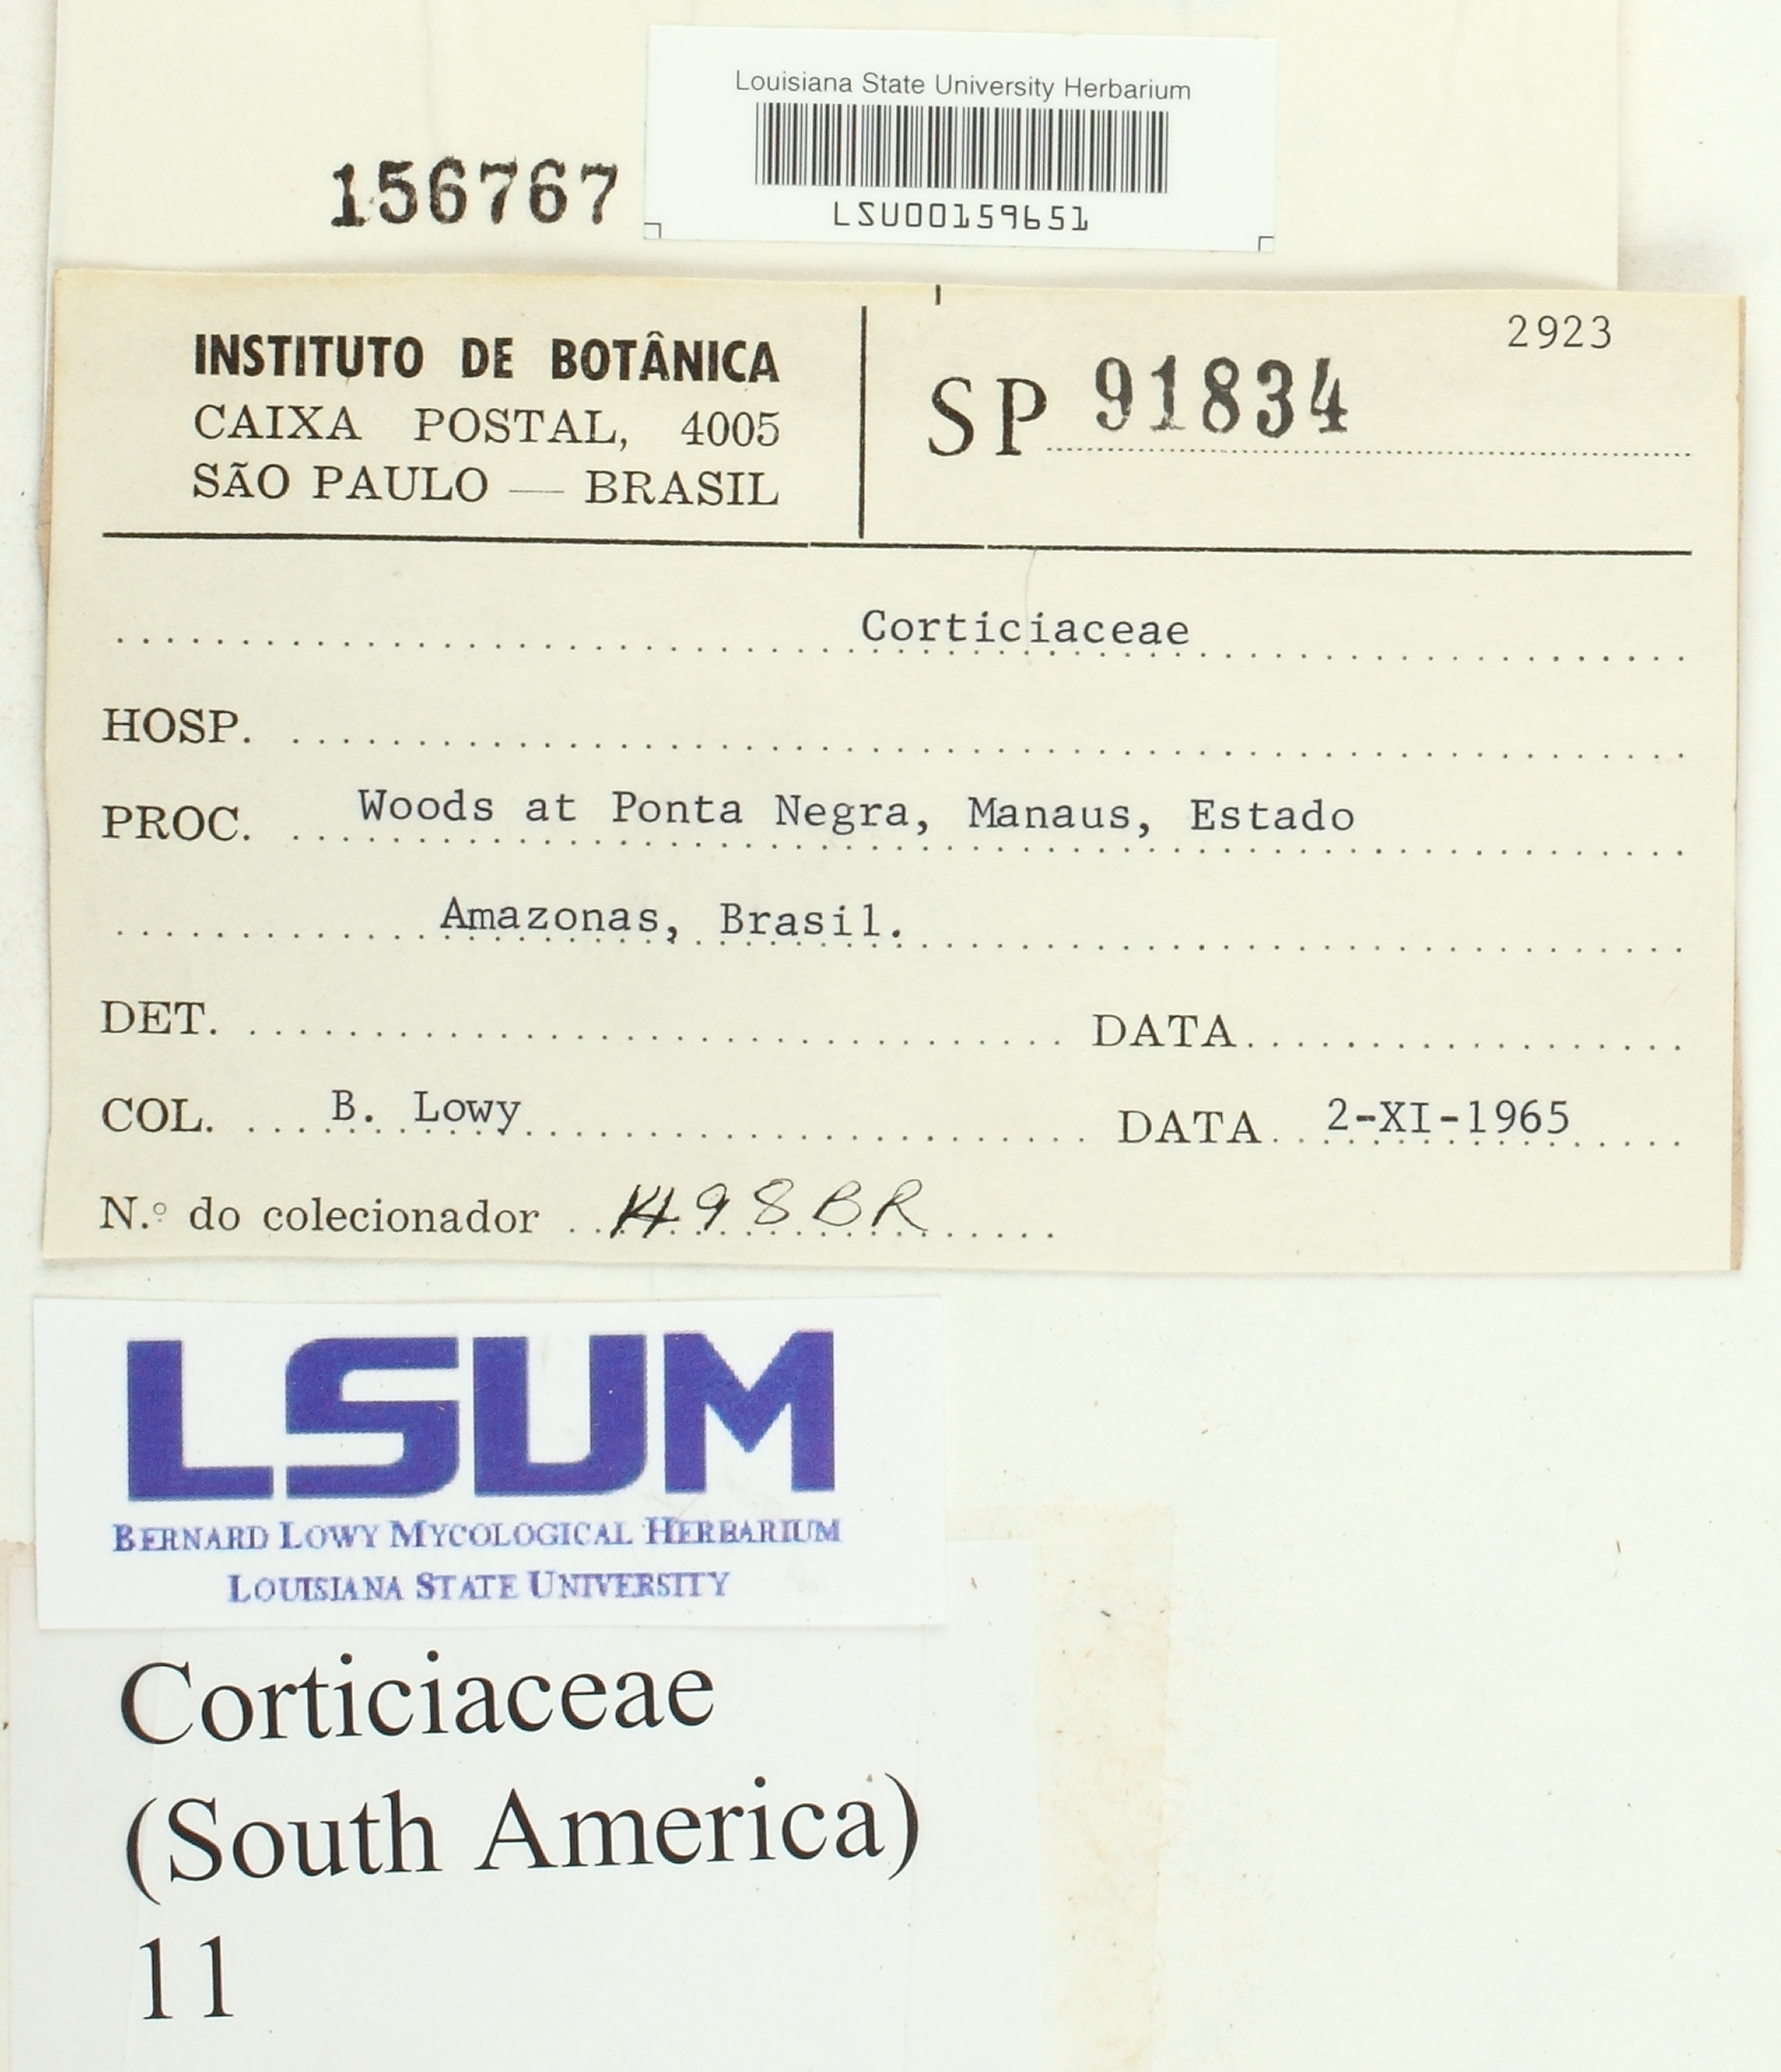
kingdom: Fungi
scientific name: Fungi
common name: Fungi
